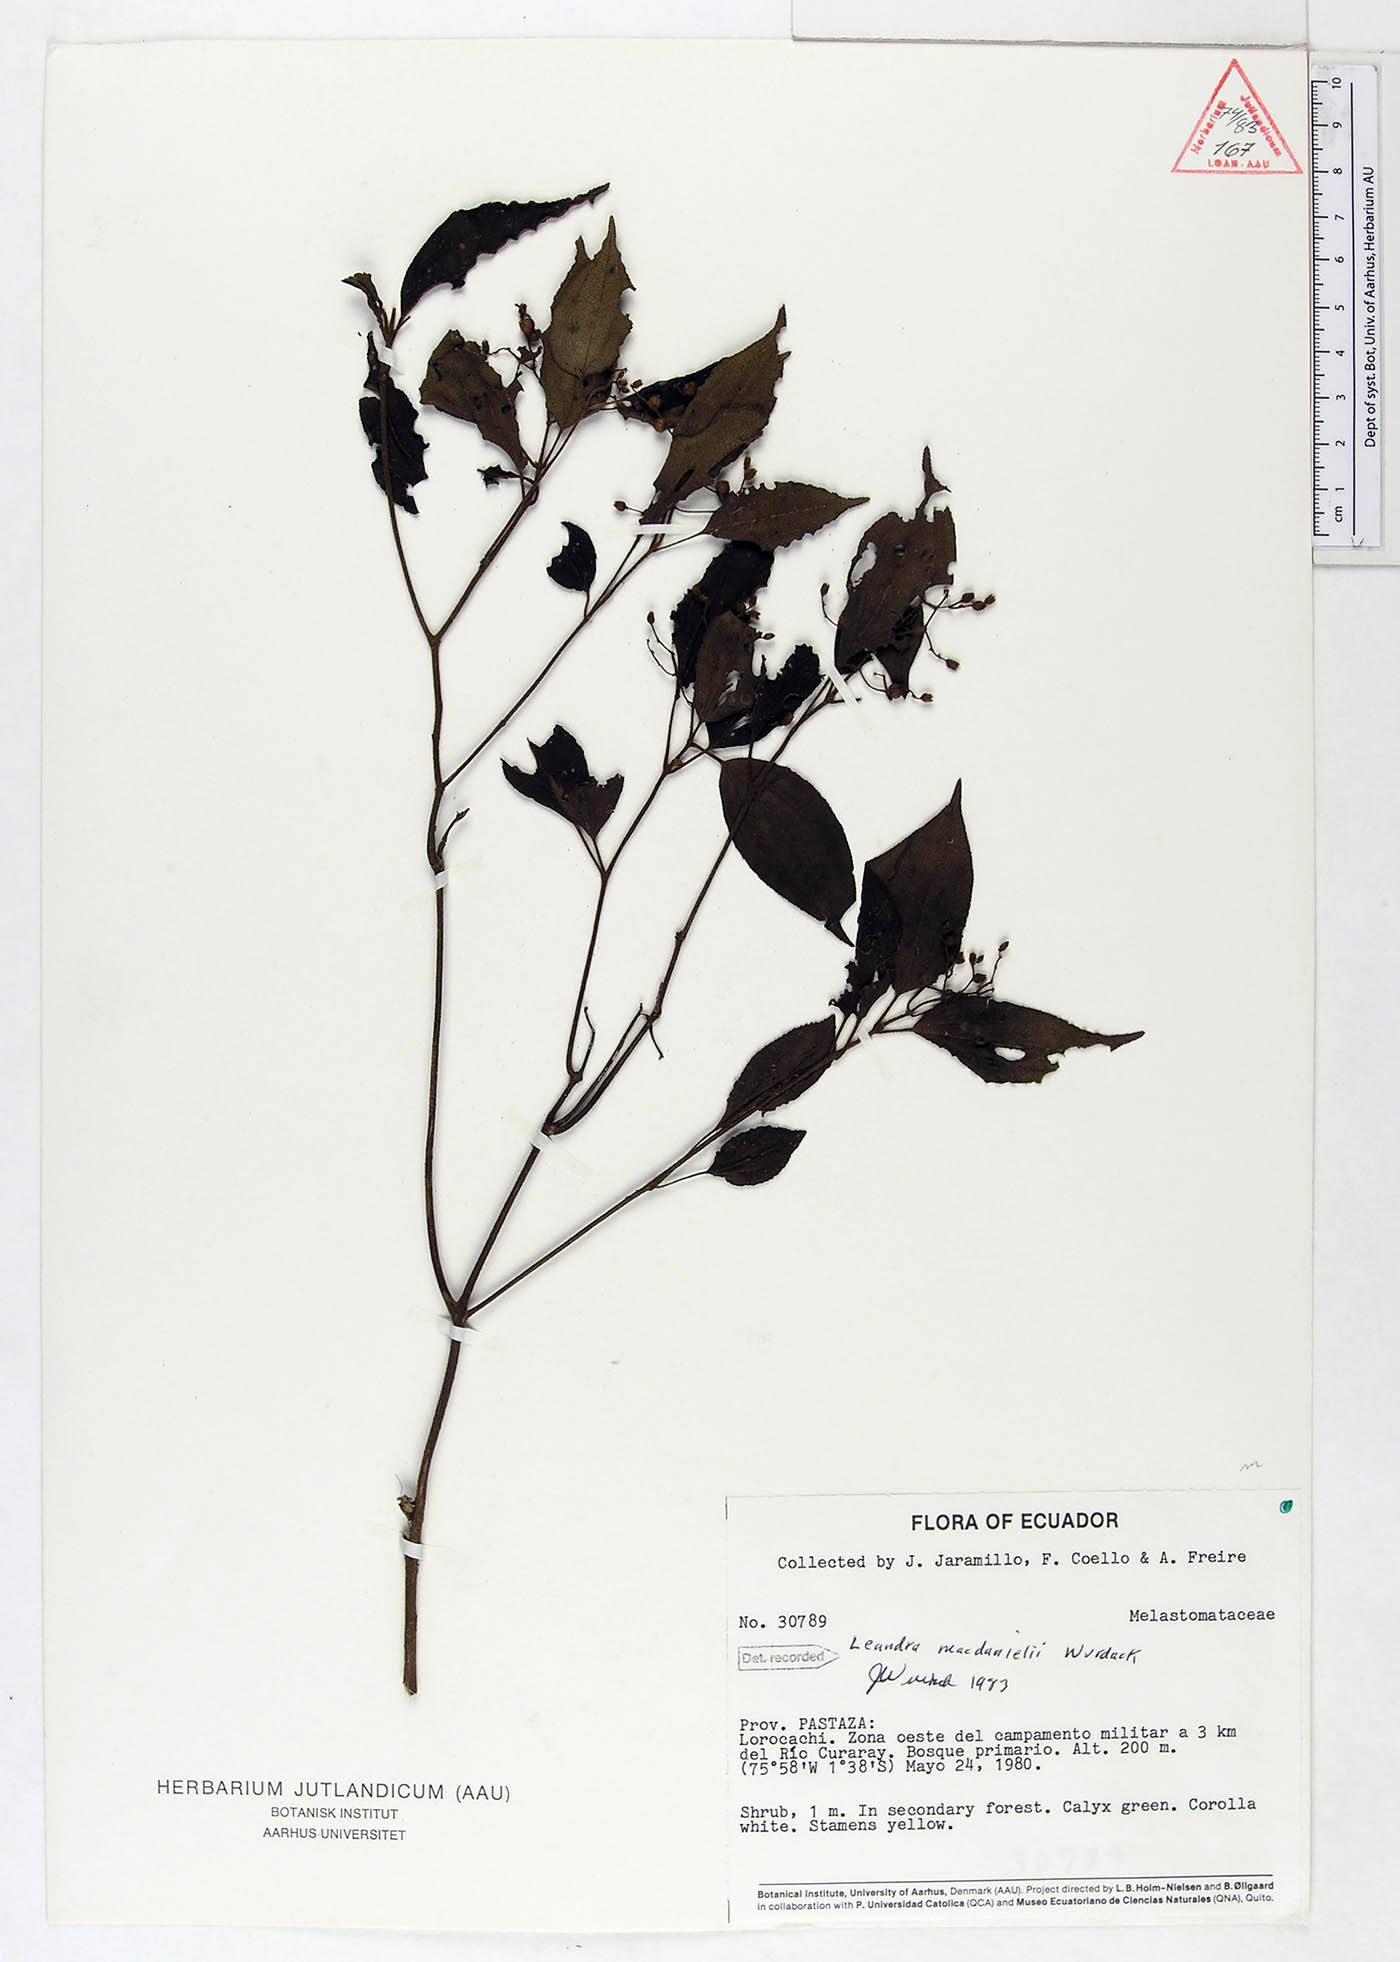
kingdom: Plantae
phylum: Tracheophyta
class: Magnoliopsida
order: Myrtales
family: Melastomataceae
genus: Miconia
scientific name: Miconia secunmacdanielii
